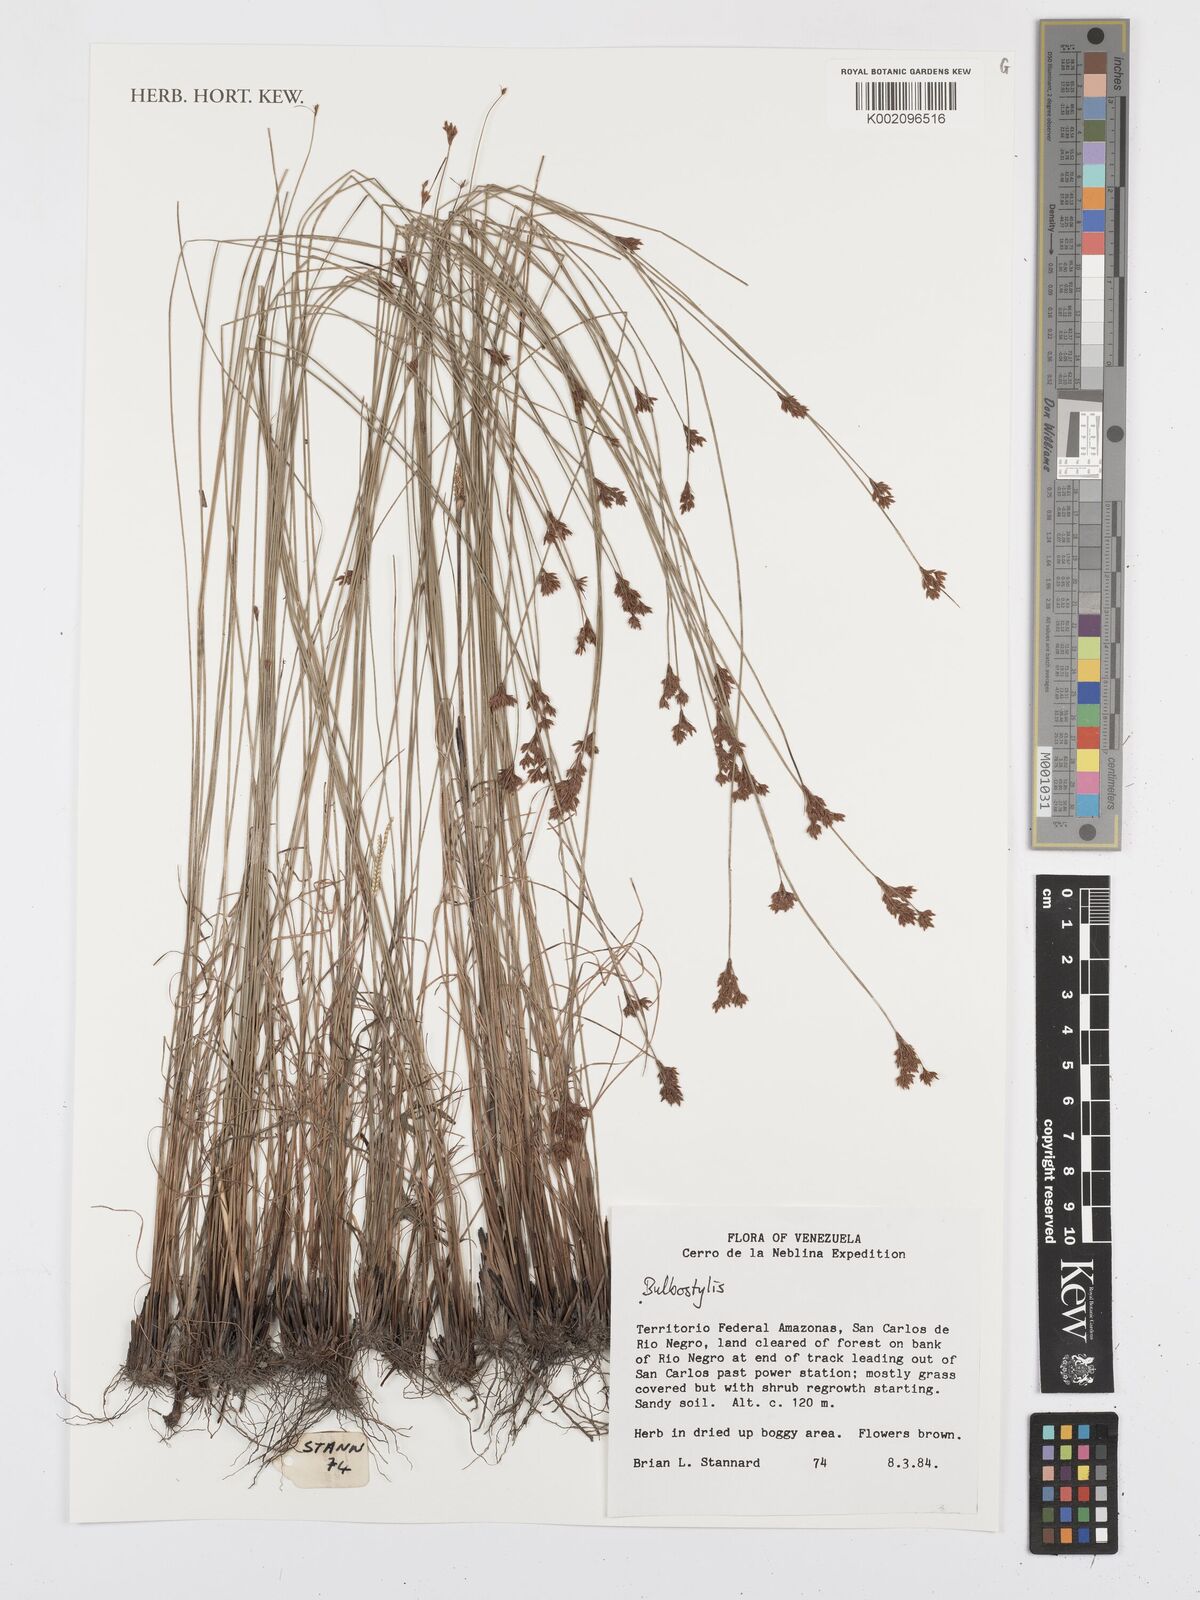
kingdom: Plantae
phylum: Tracheophyta
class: Liliopsida
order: Poales
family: Cyperaceae
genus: Bulbostylis
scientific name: Bulbostylis
